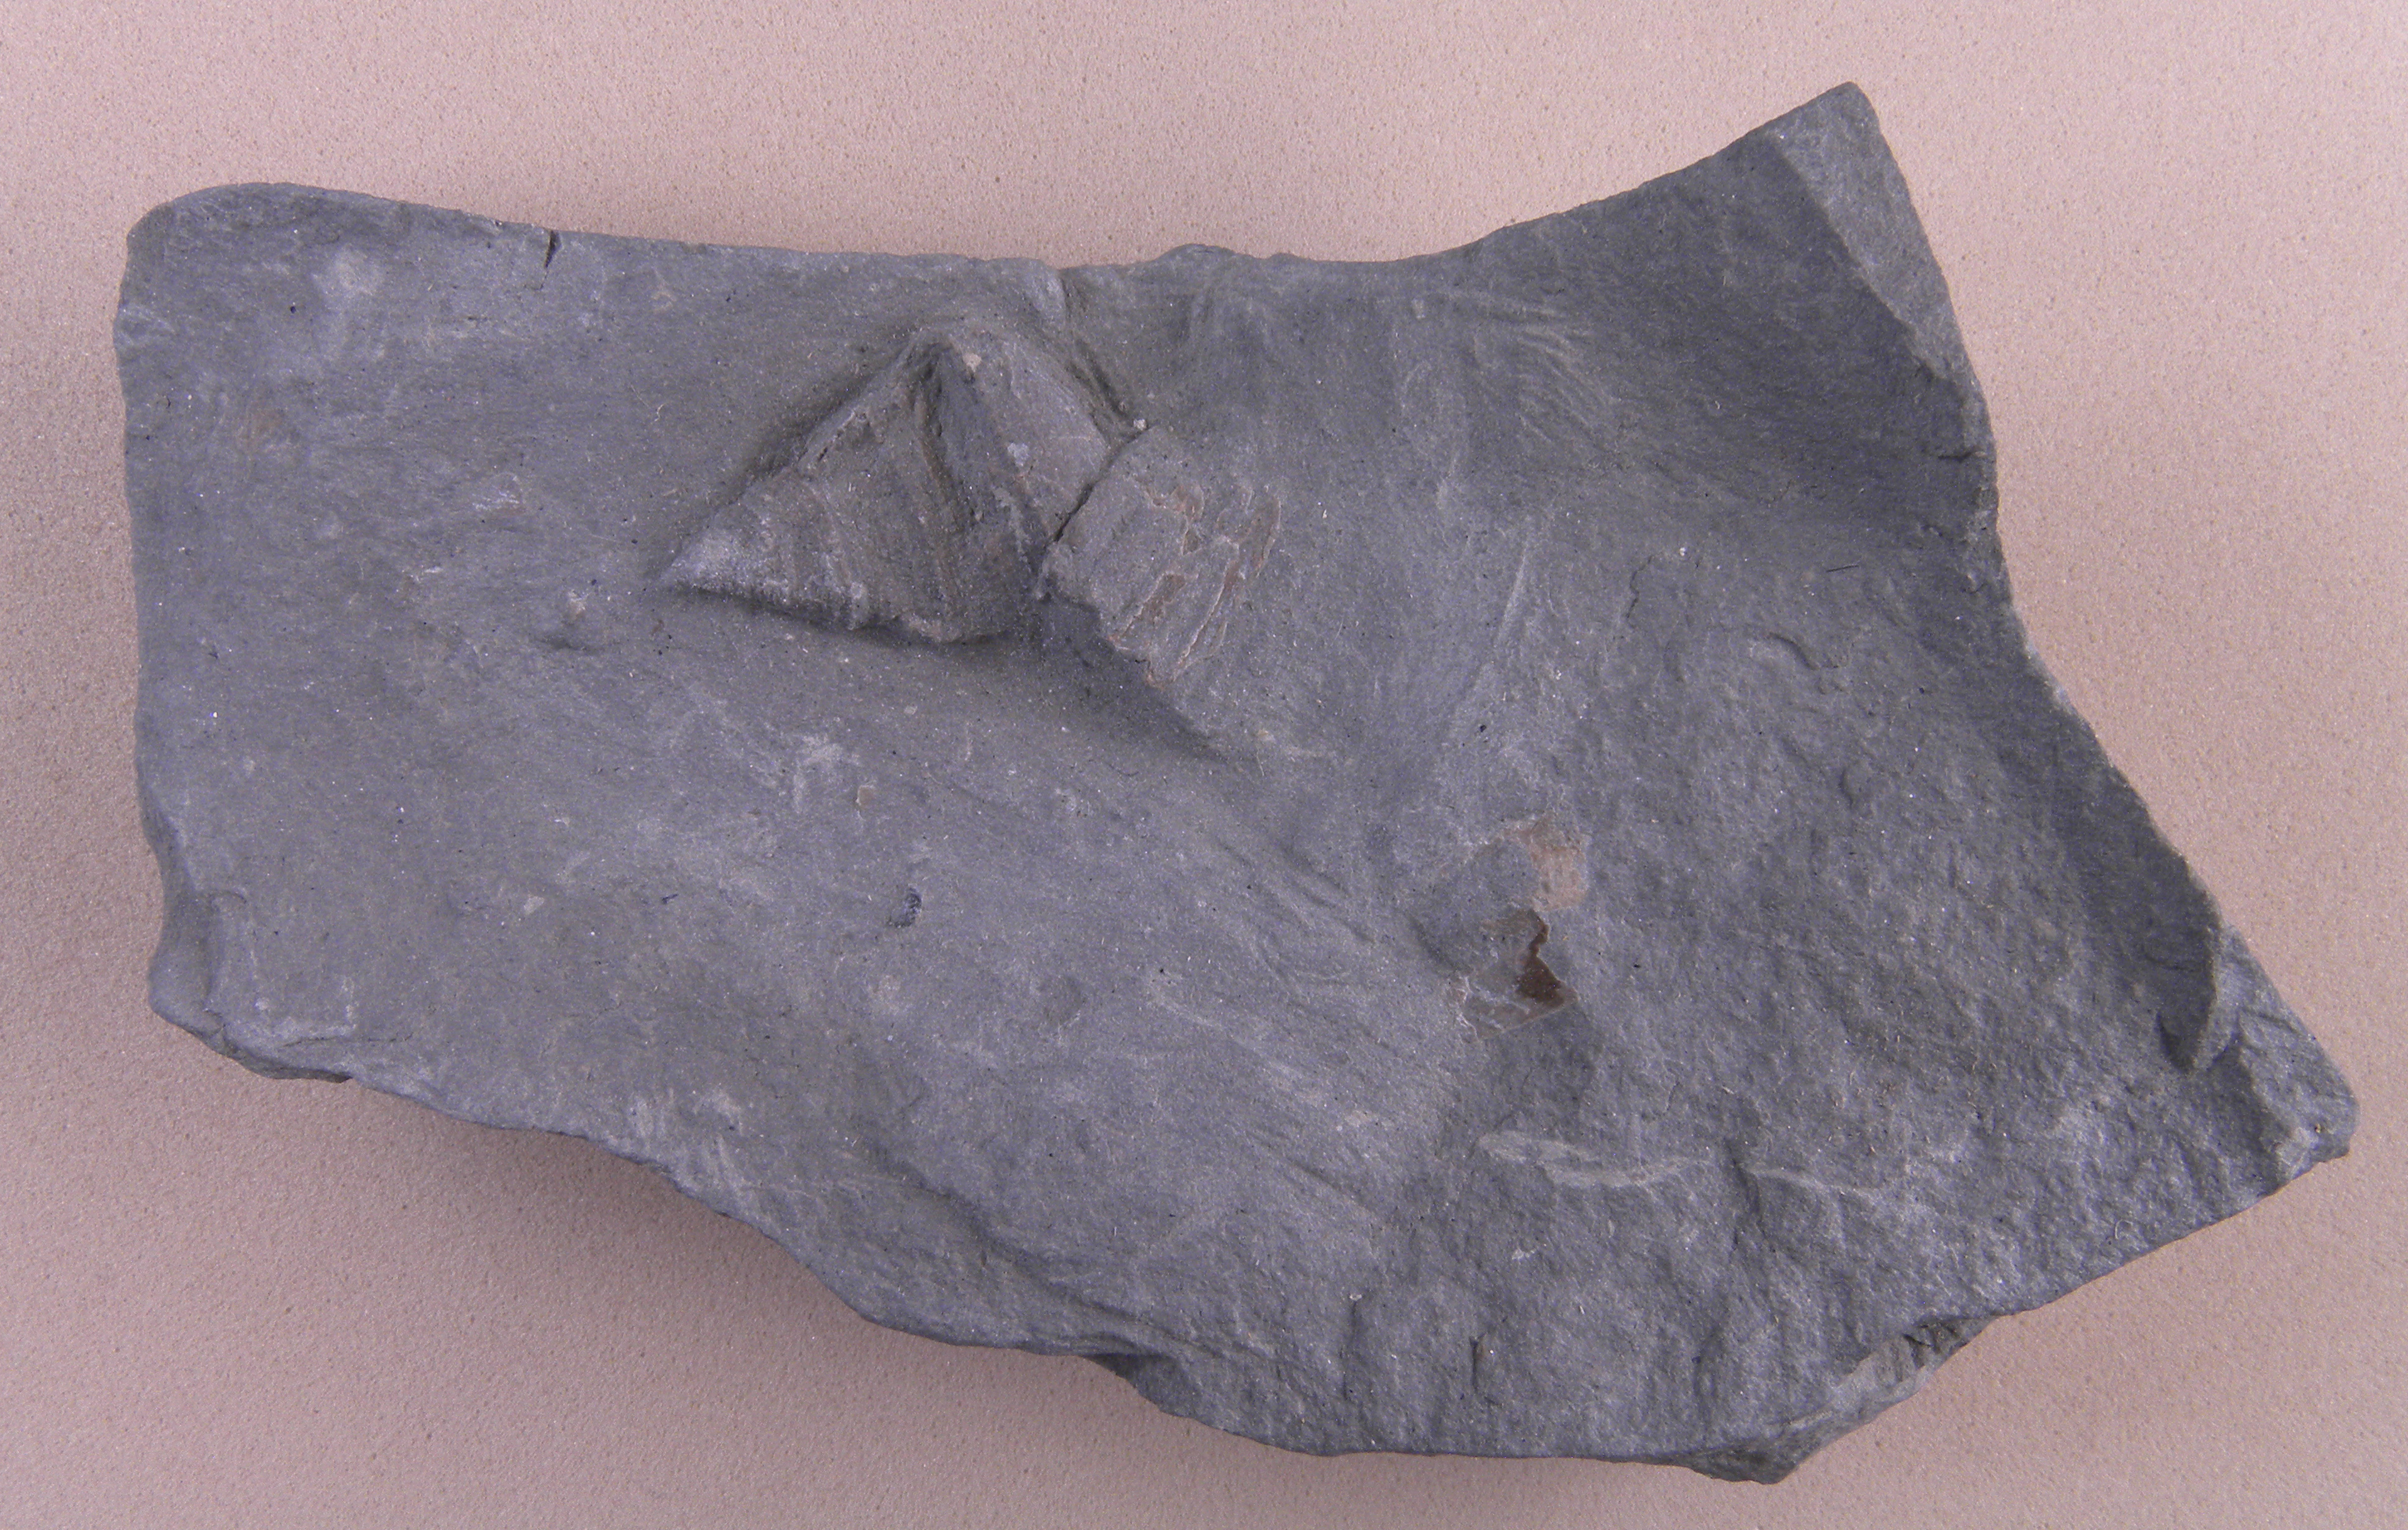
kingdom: Animalia
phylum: Mollusca
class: Gastropoda
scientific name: Gastropoda
